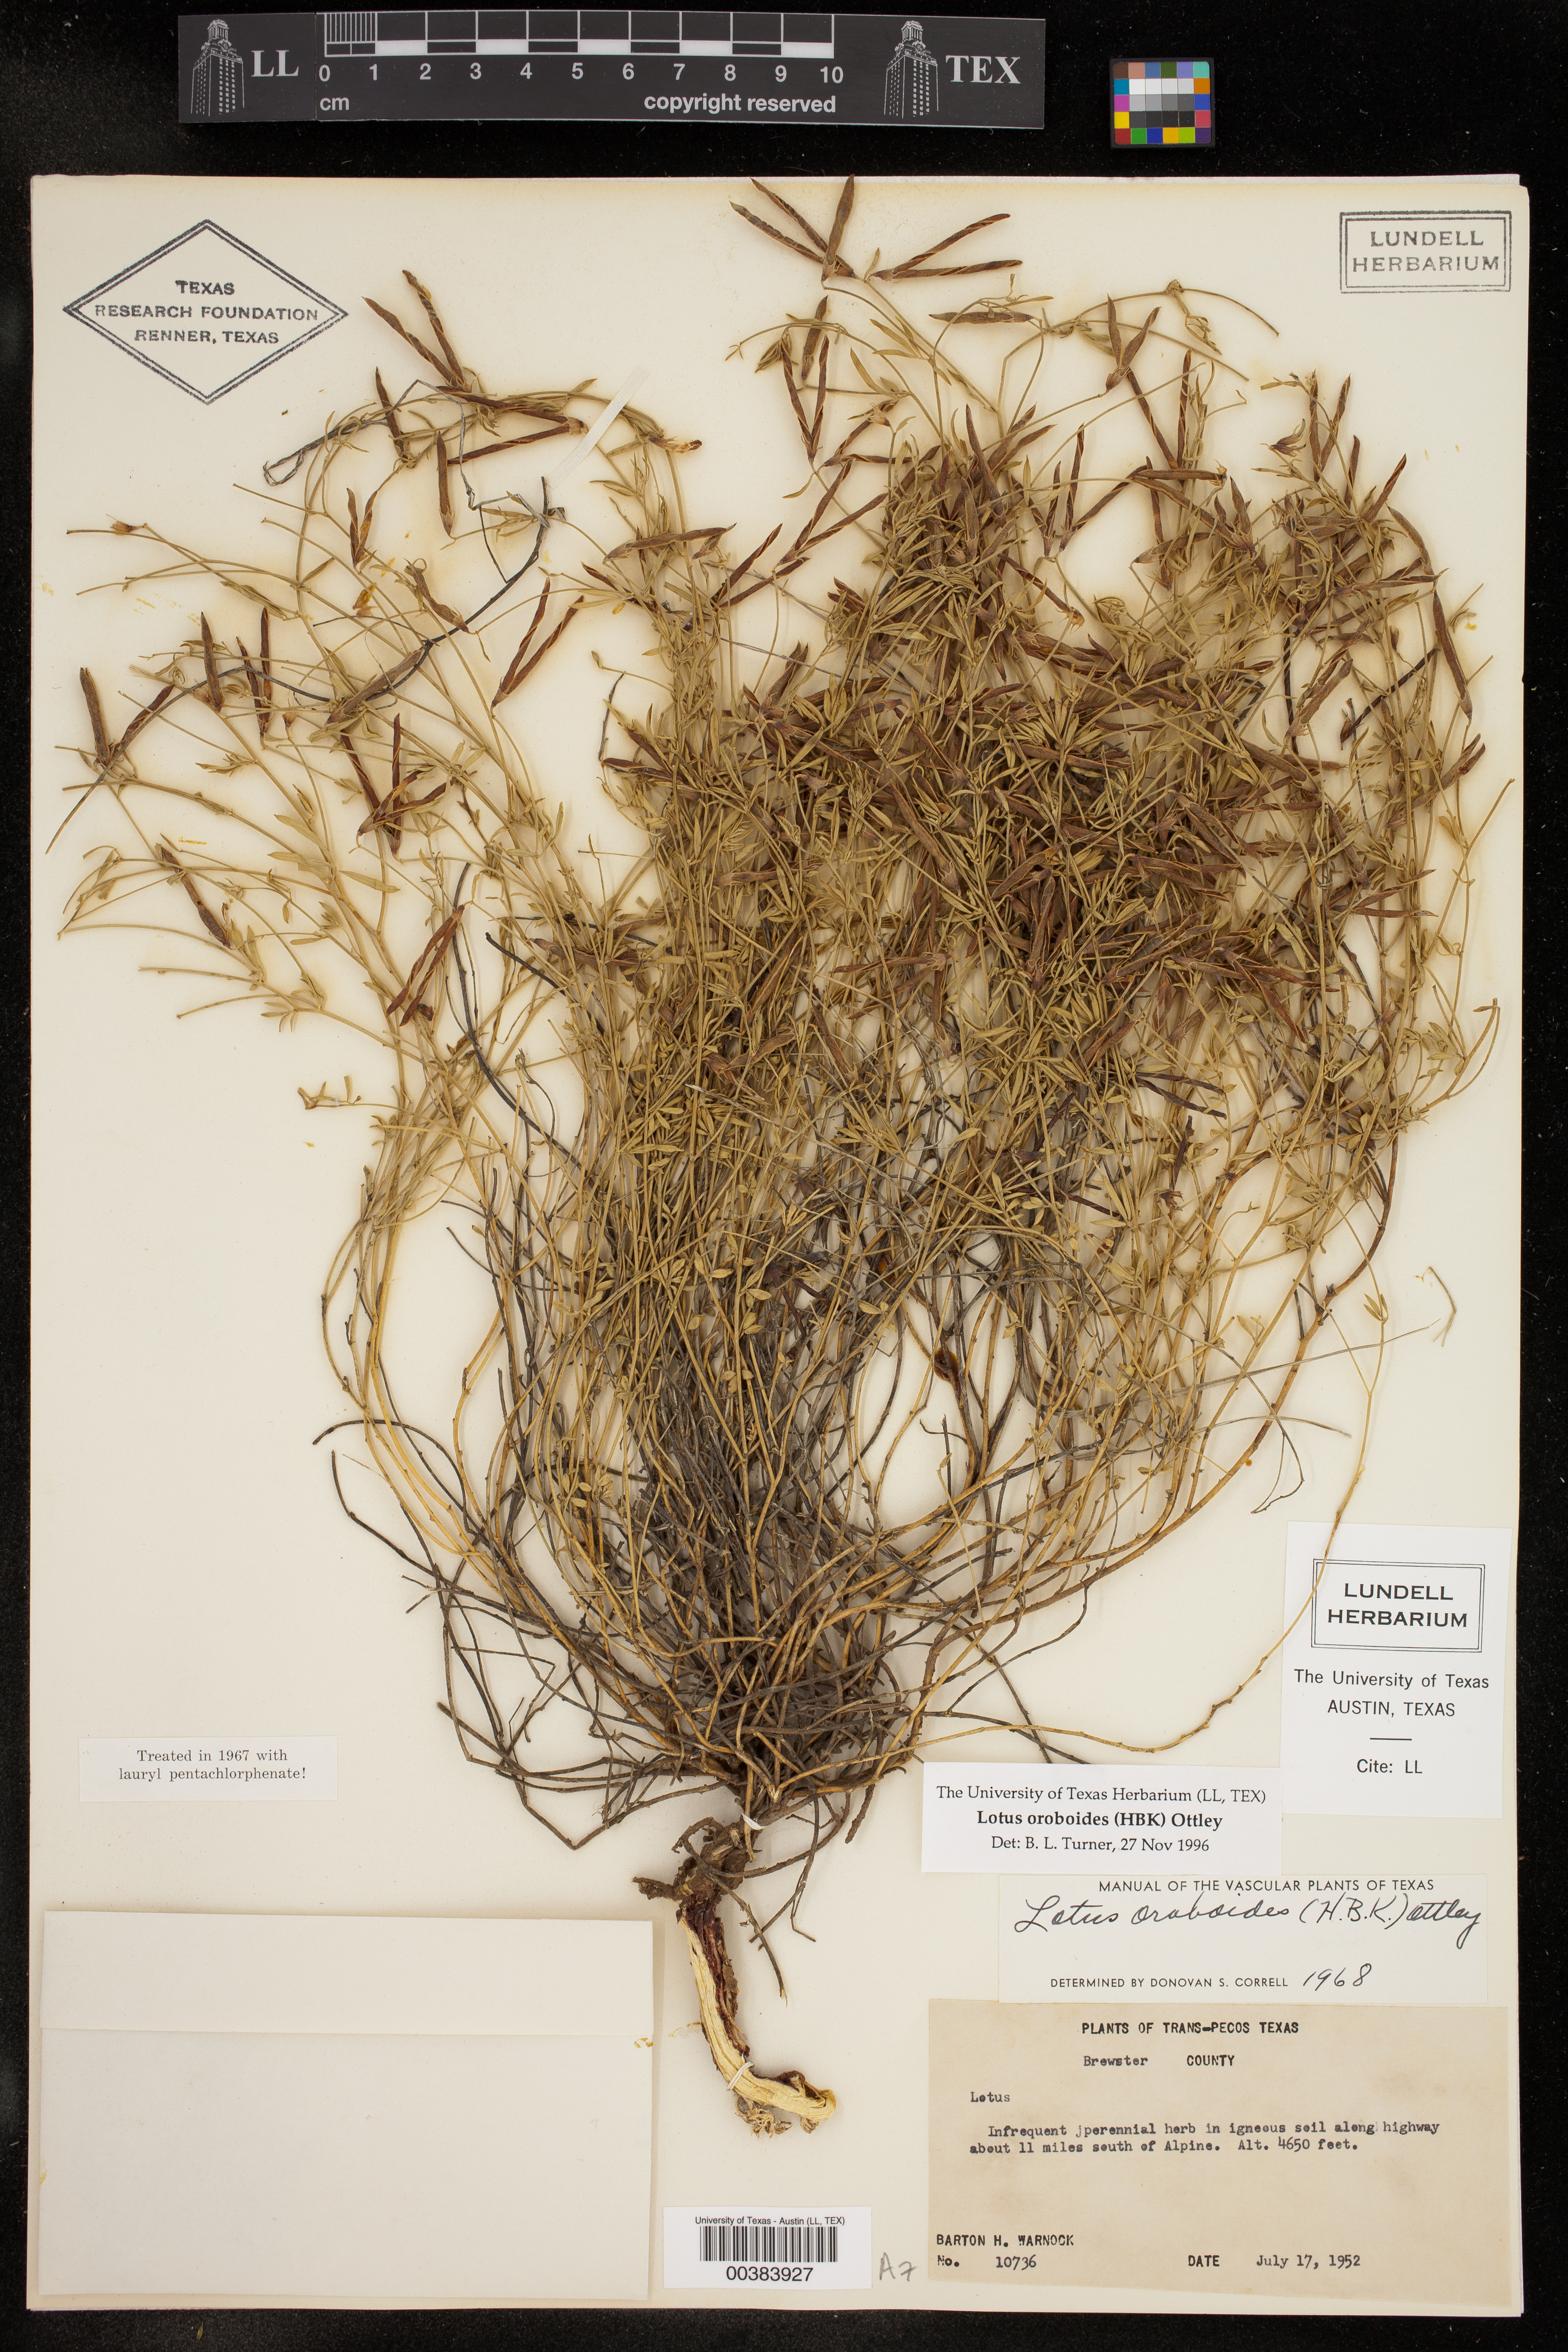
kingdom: Plantae
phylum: Tracheophyta
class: Magnoliopsida
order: Fabales
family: Fabaceae
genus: Acmispon
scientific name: Acmispon oroboides
